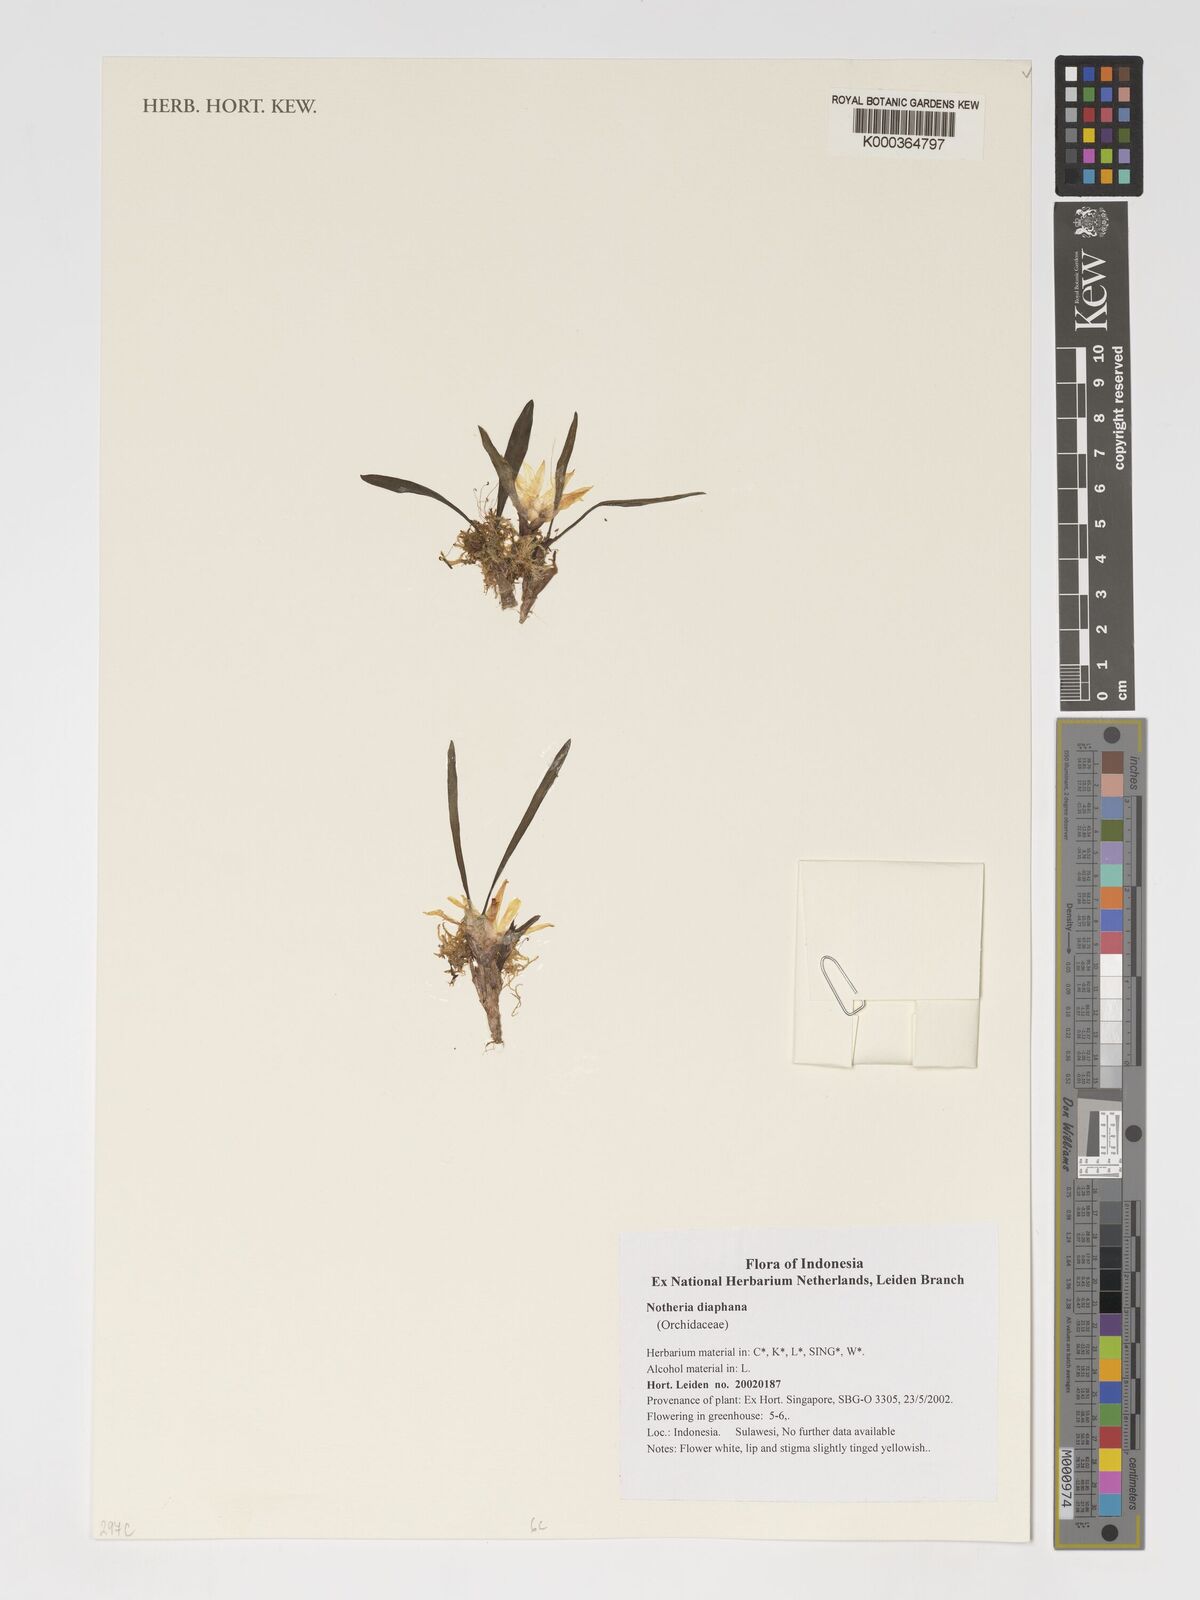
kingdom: Plantae
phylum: Tracheophyta
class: Liliopsida
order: Asparagales
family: Orchidaceae
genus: Bryobium
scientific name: Bryobium diaphanum
